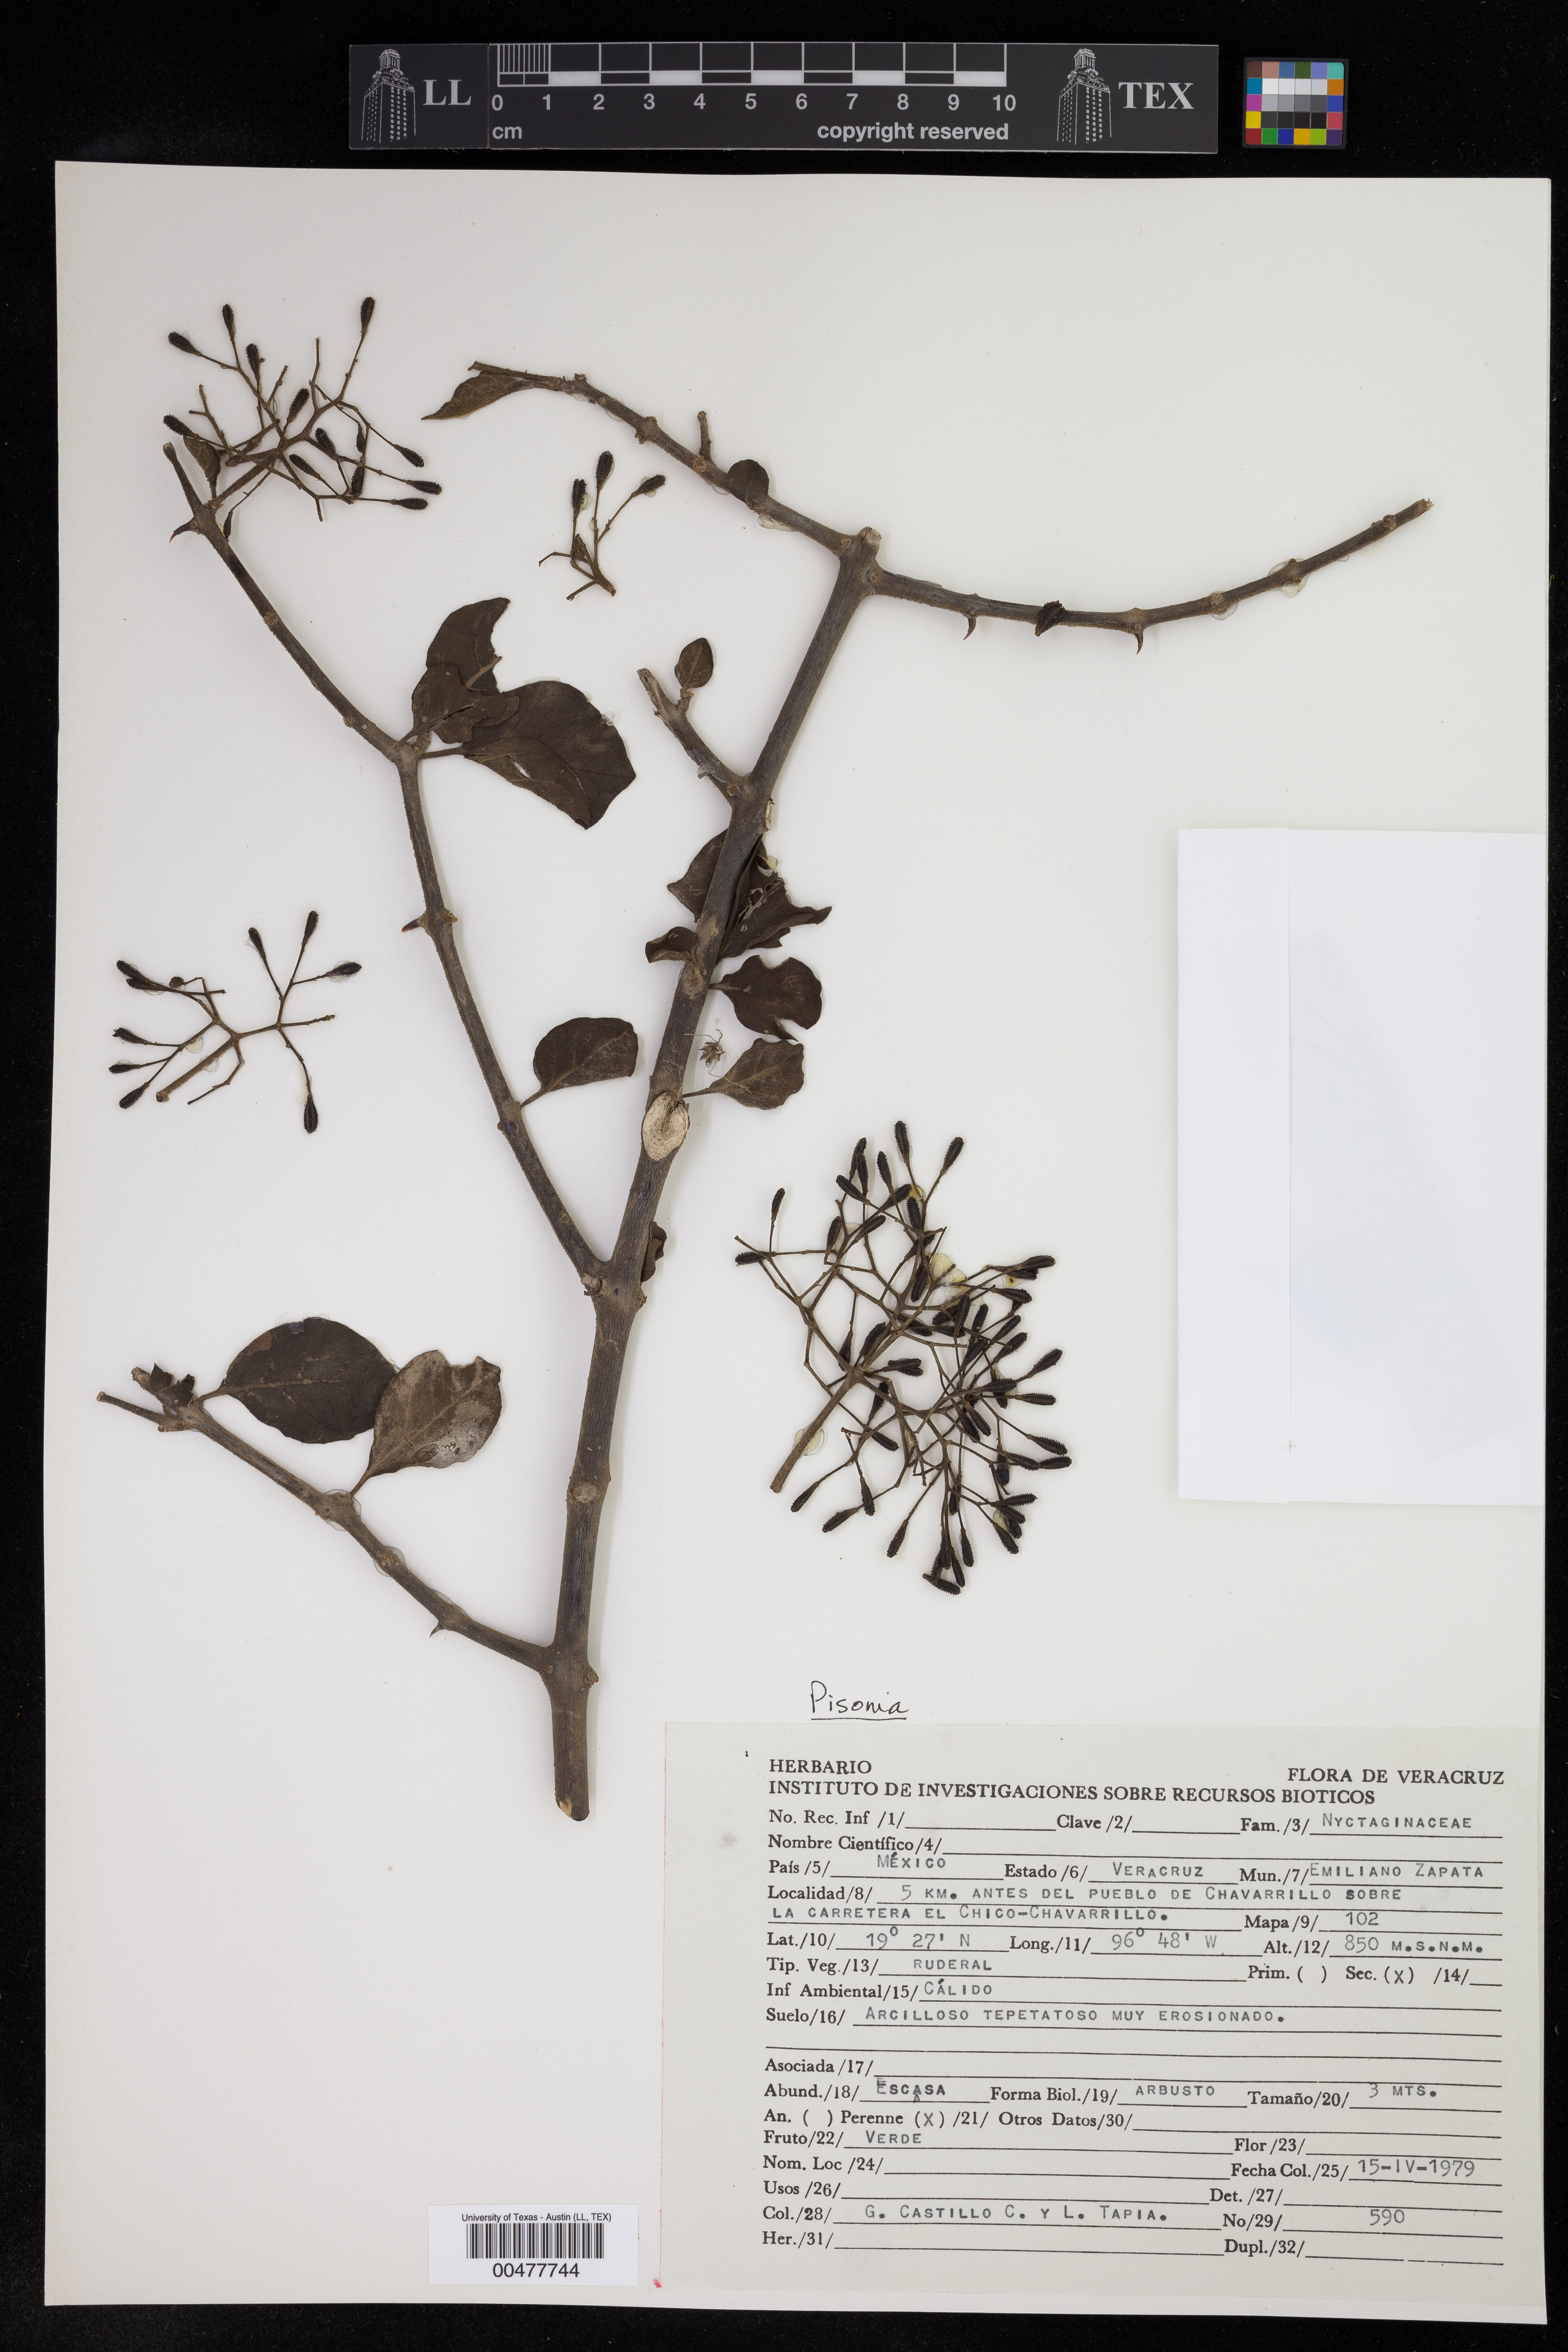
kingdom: Plantae
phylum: Tracheophyta
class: Magnoliopsida
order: Caryophyllales
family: Nyctaginaceae
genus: Pisonia
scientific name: Pisonia
